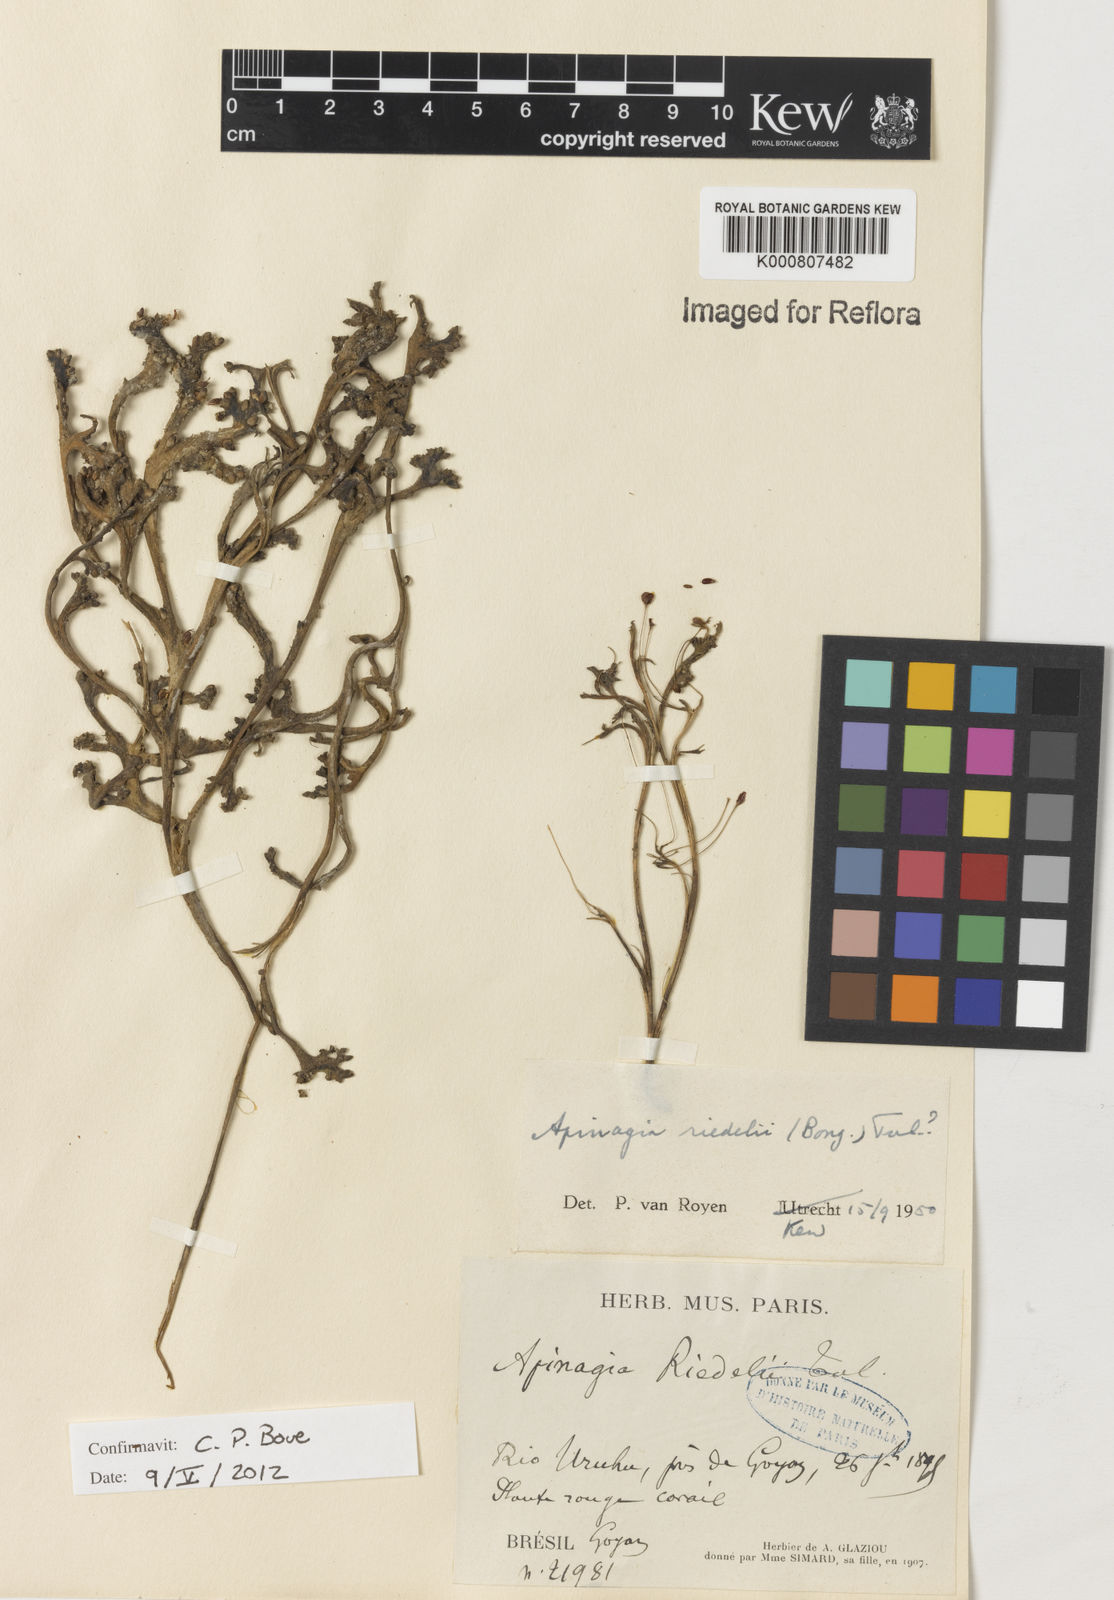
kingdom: Plantae
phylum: Tracheophyta
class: Magnoliopsida
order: Malpighiales
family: Podostemaceae
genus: Apinagia
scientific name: Apinagia riedelii
